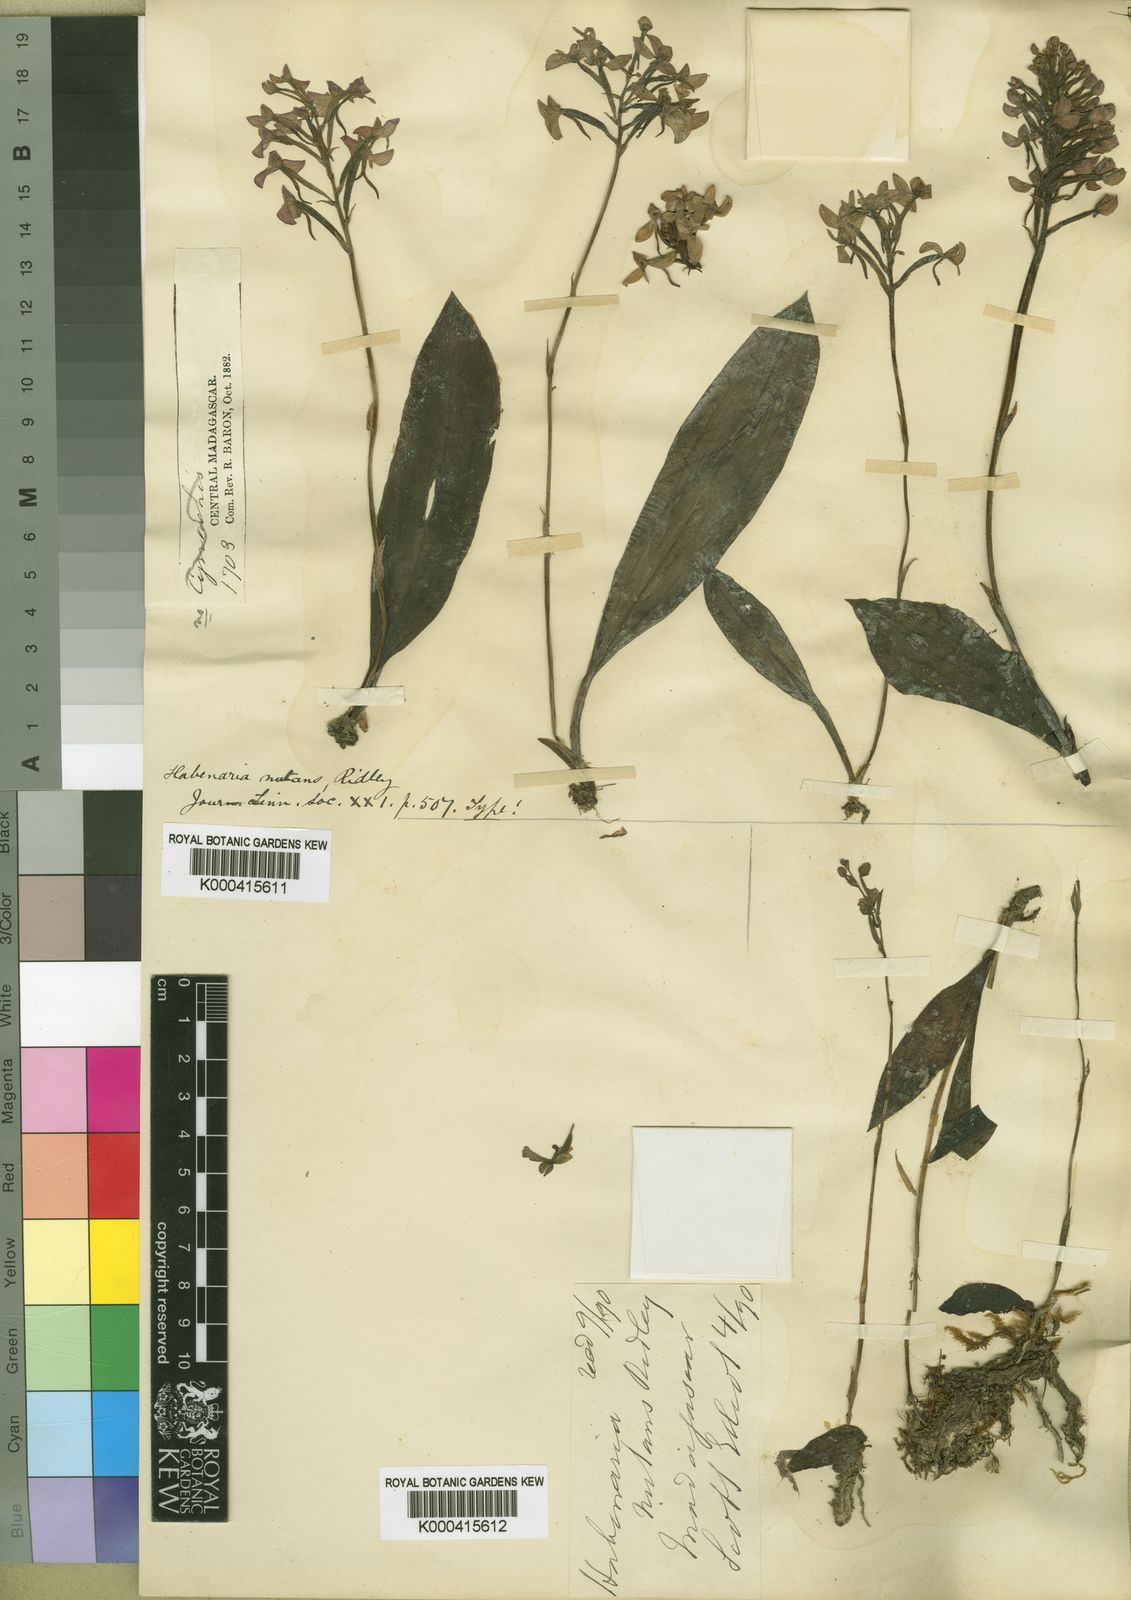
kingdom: Plantae
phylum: Tracheophyta
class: Liliopsida
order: Asparagales
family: Orchidaceae
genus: Cynorkis
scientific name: Cynorkis nutans
